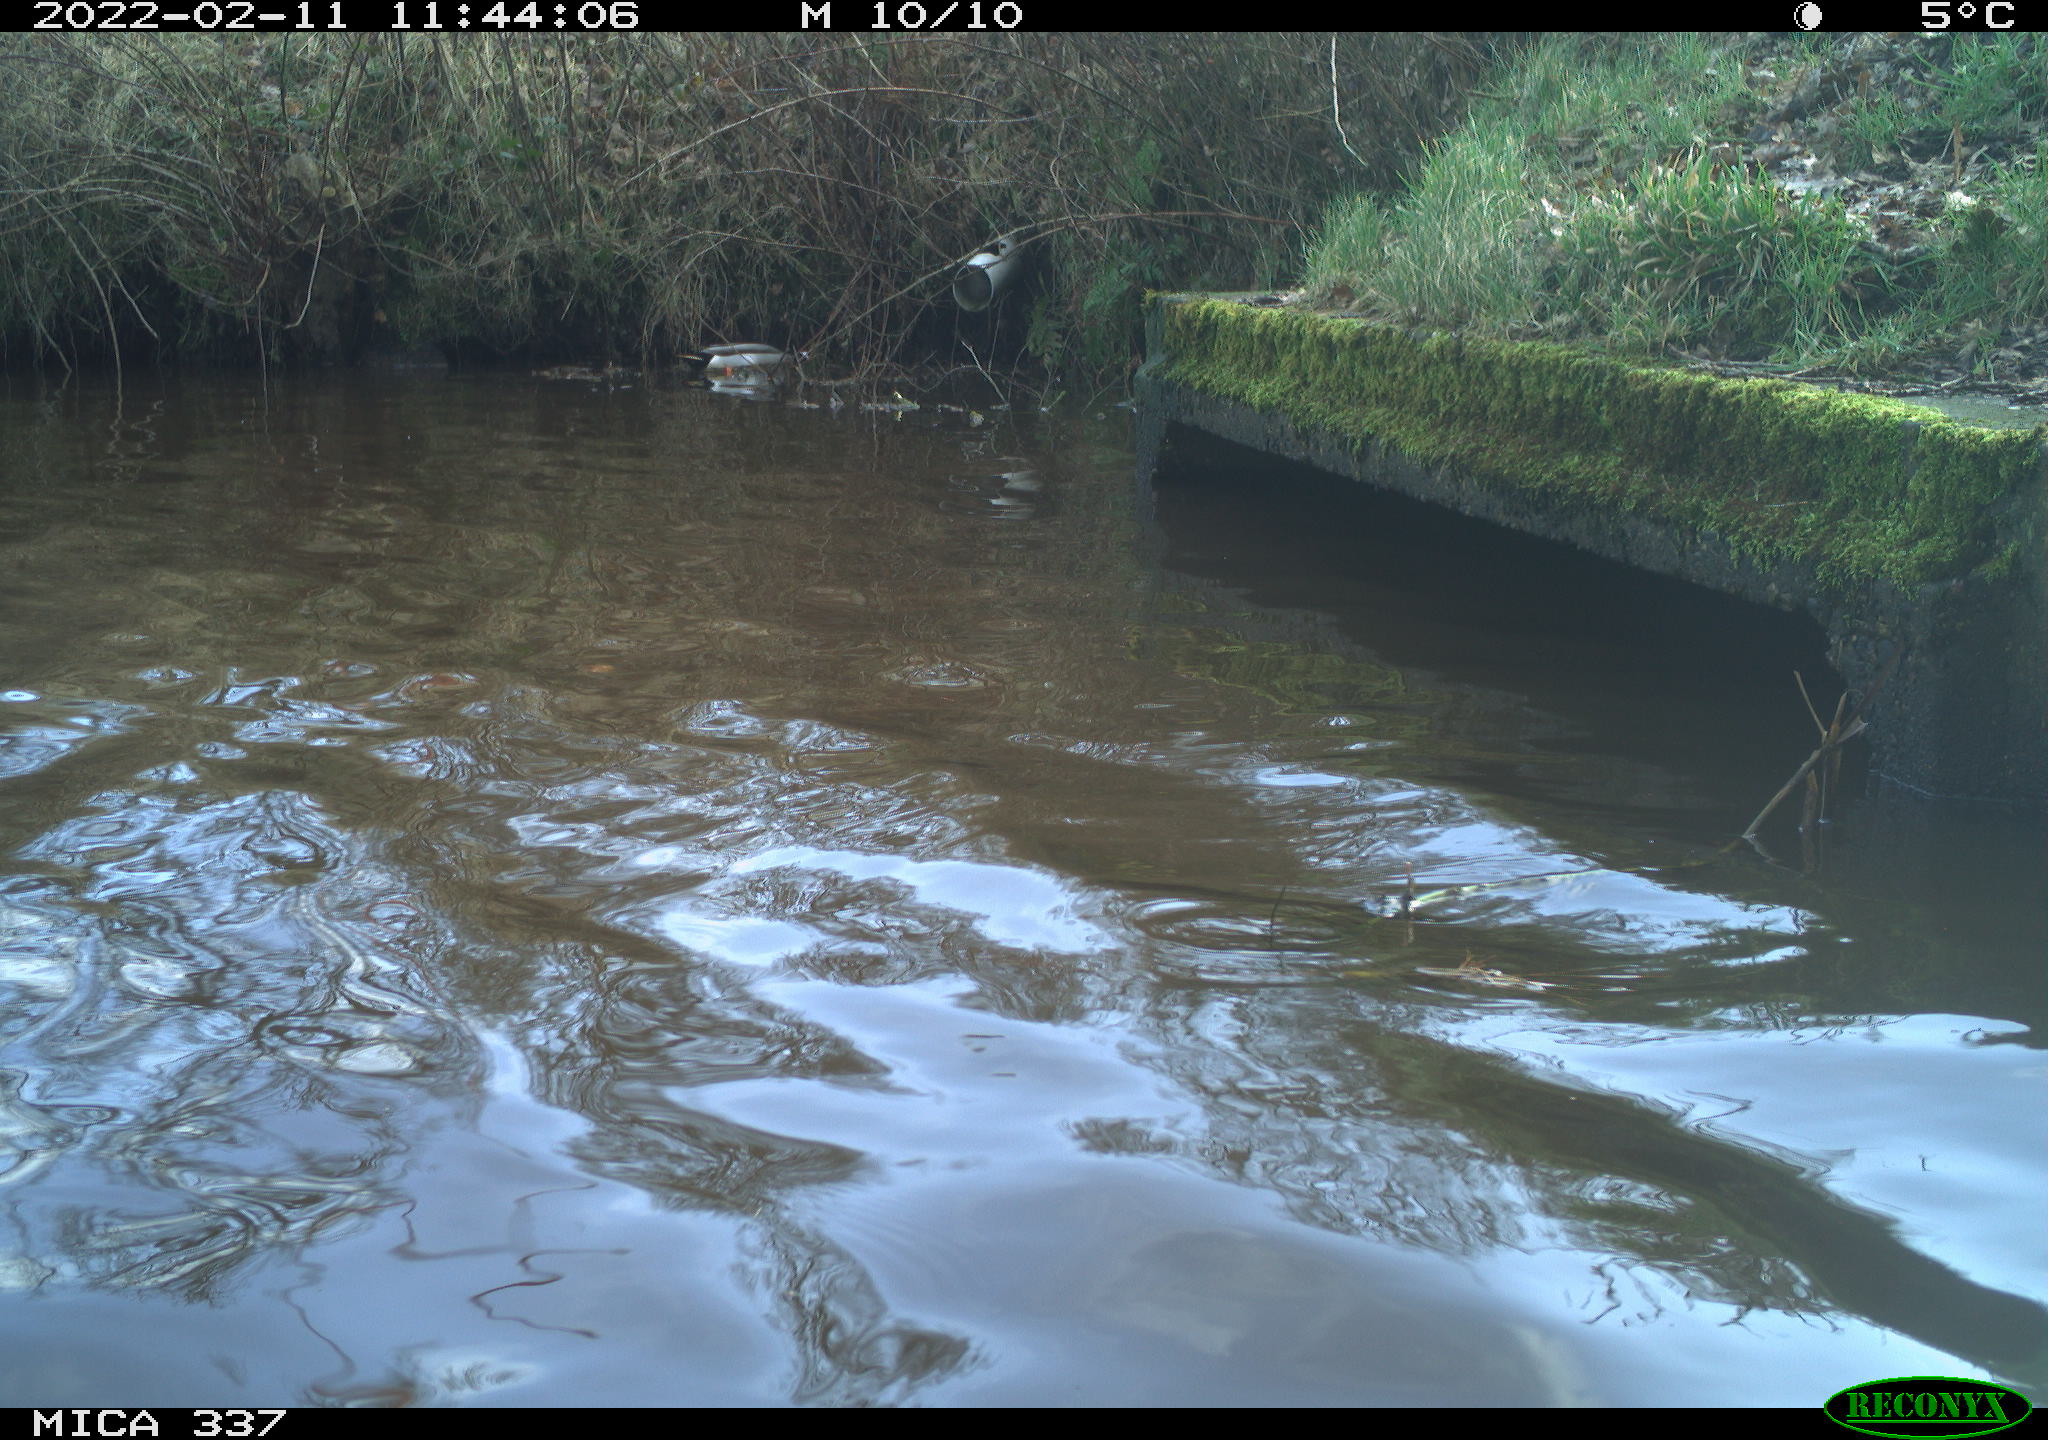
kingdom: Animalia
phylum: Chordata
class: Aves
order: Anseriformes
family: Anatidae
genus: Anas
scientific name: Anas platyrhynchos
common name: Mallard
